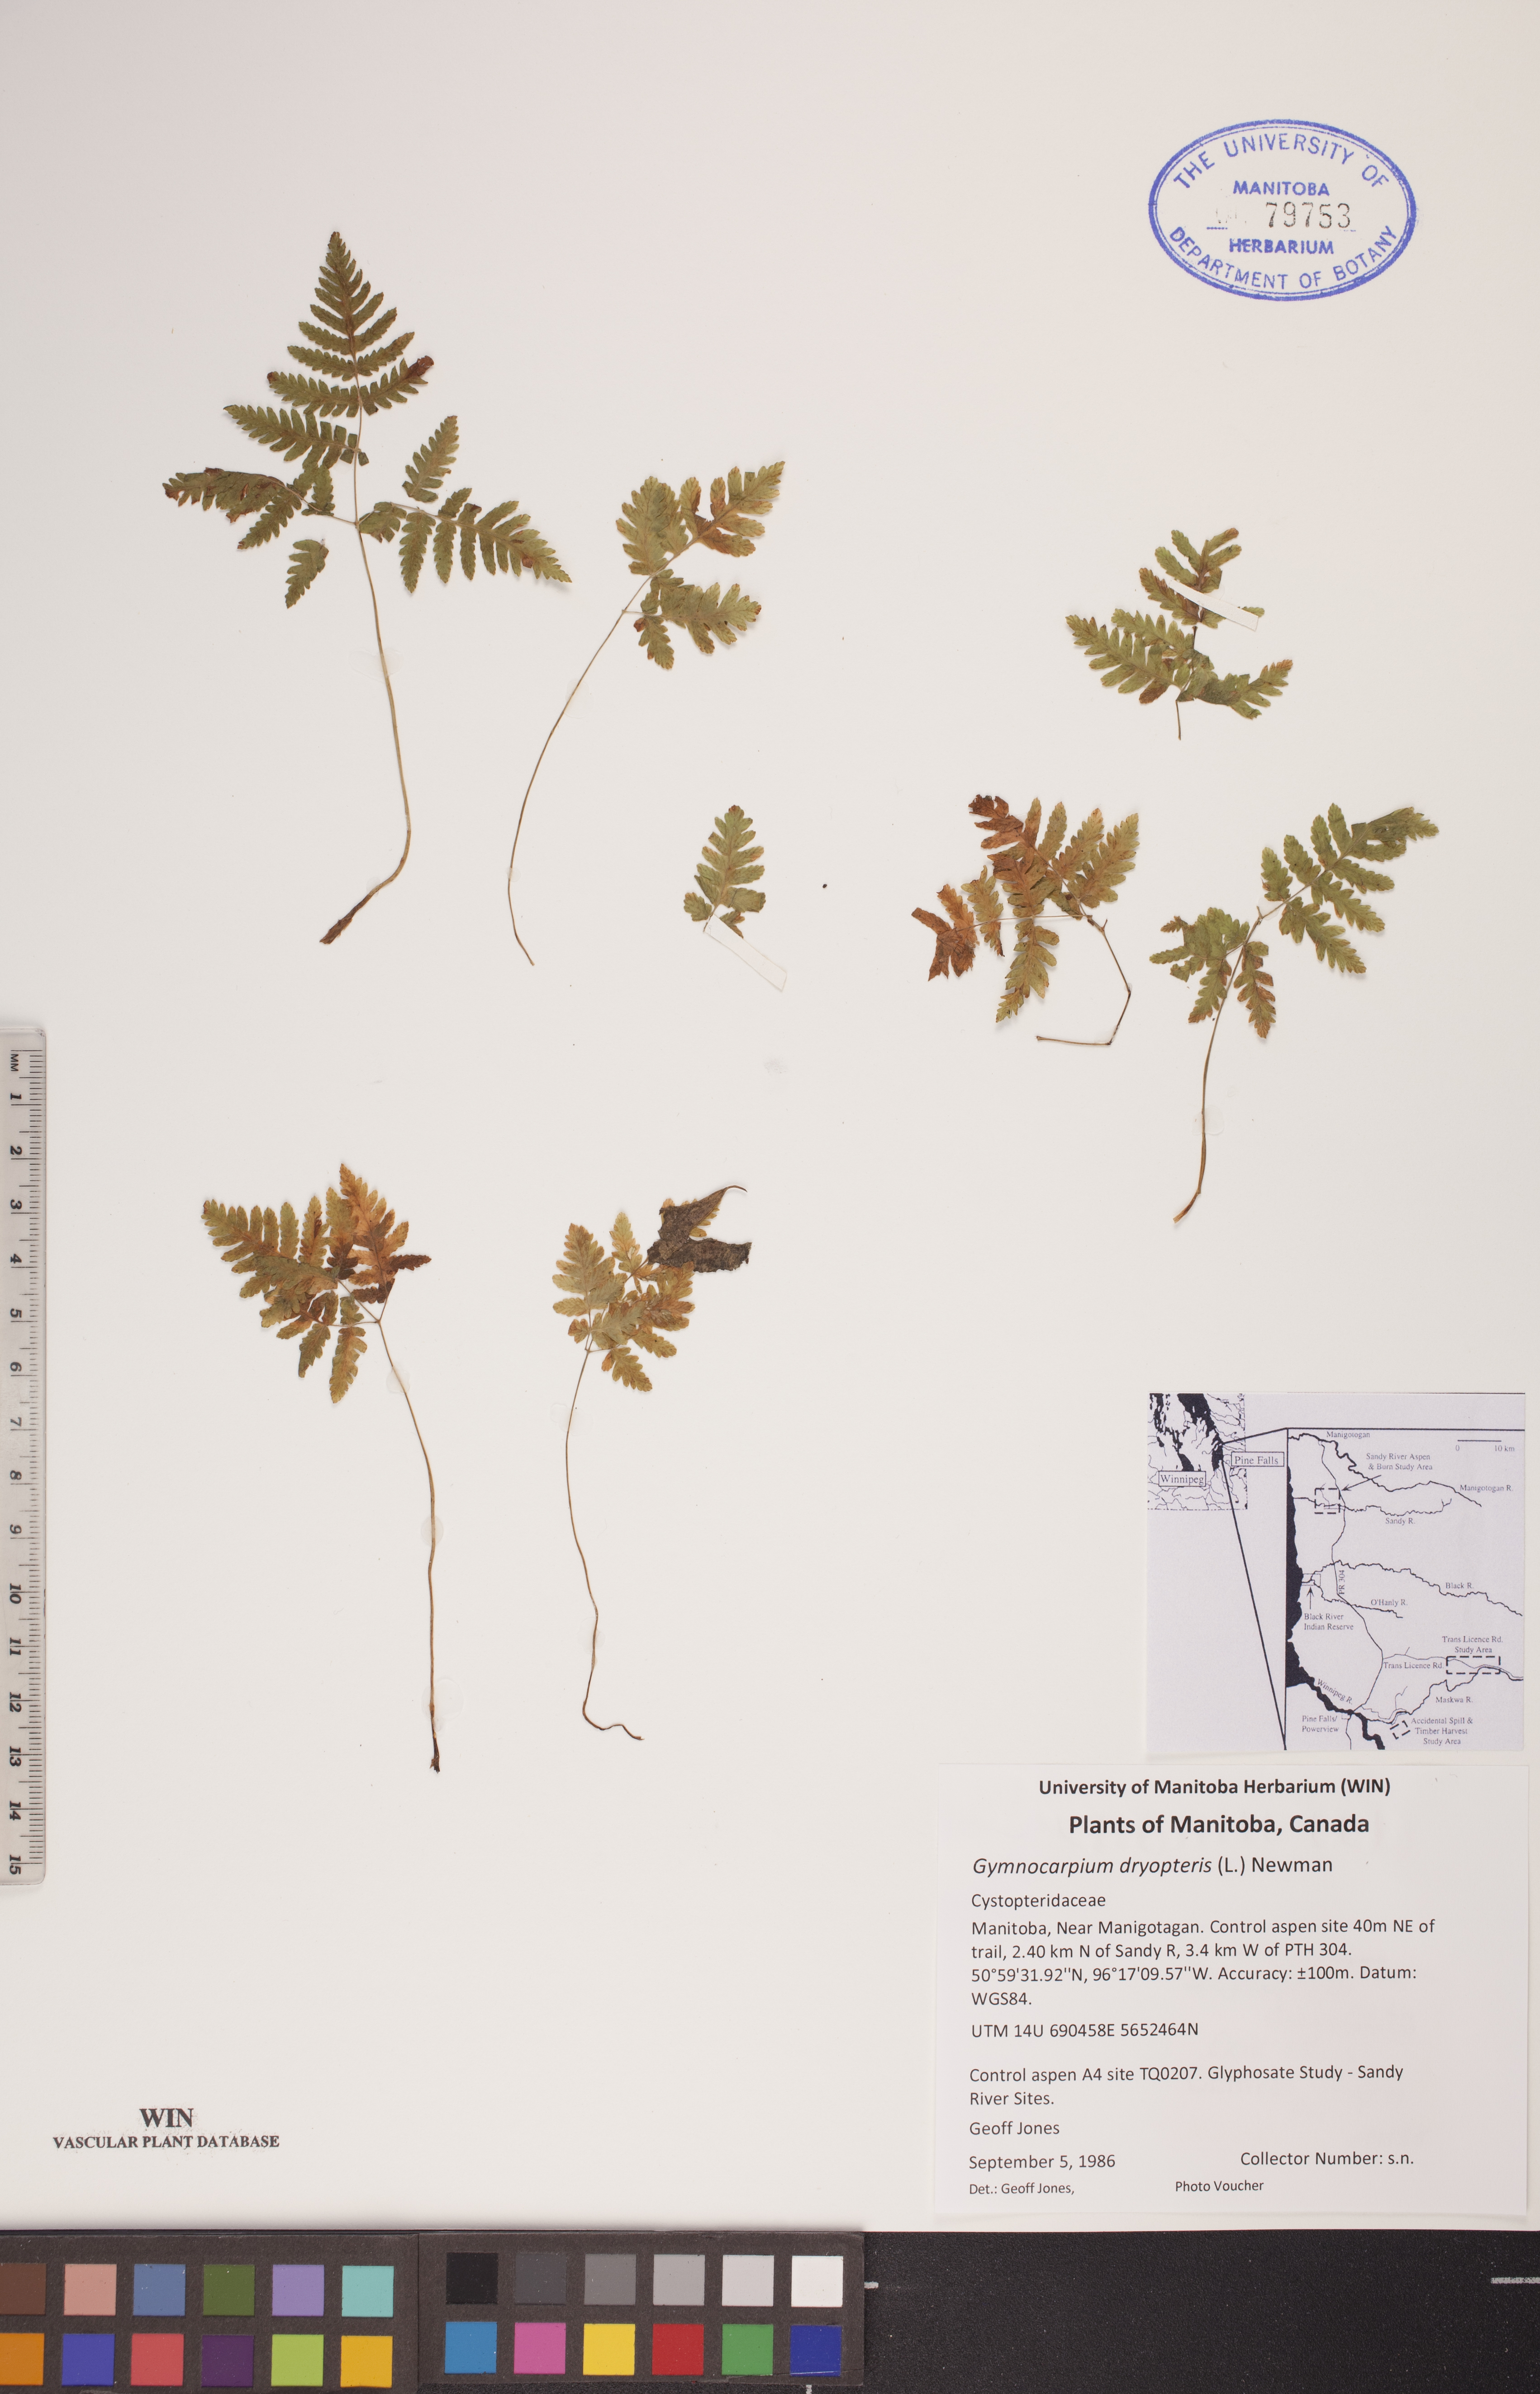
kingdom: Plantae
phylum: Tracheophyta
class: Polypodiopsida
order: Polypodiales
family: Cystopteridaceae
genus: Gymnocarpium
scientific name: Gymnocarpium dryopteris
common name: Oak fern
